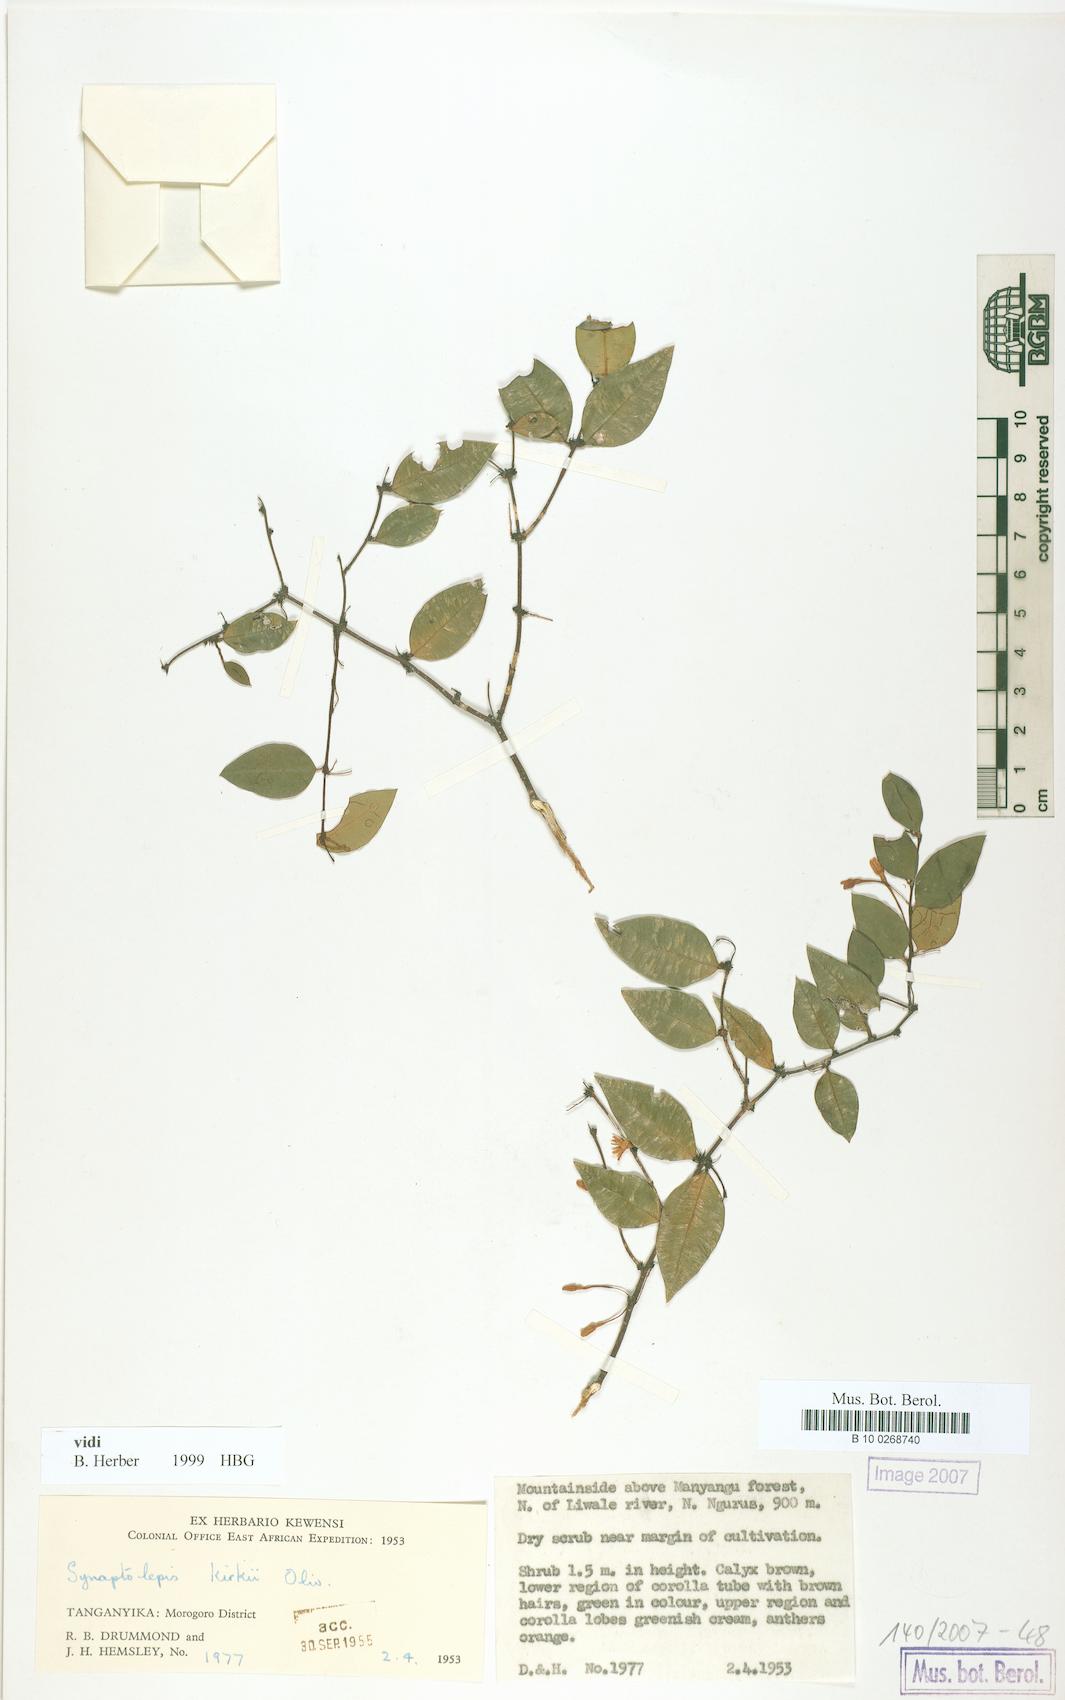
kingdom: Plantae
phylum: Tracheophyta
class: Magnoliopsida
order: Malvales
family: Thymelaeaceae
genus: Synaptolepis
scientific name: Synaptolepis kirkii
